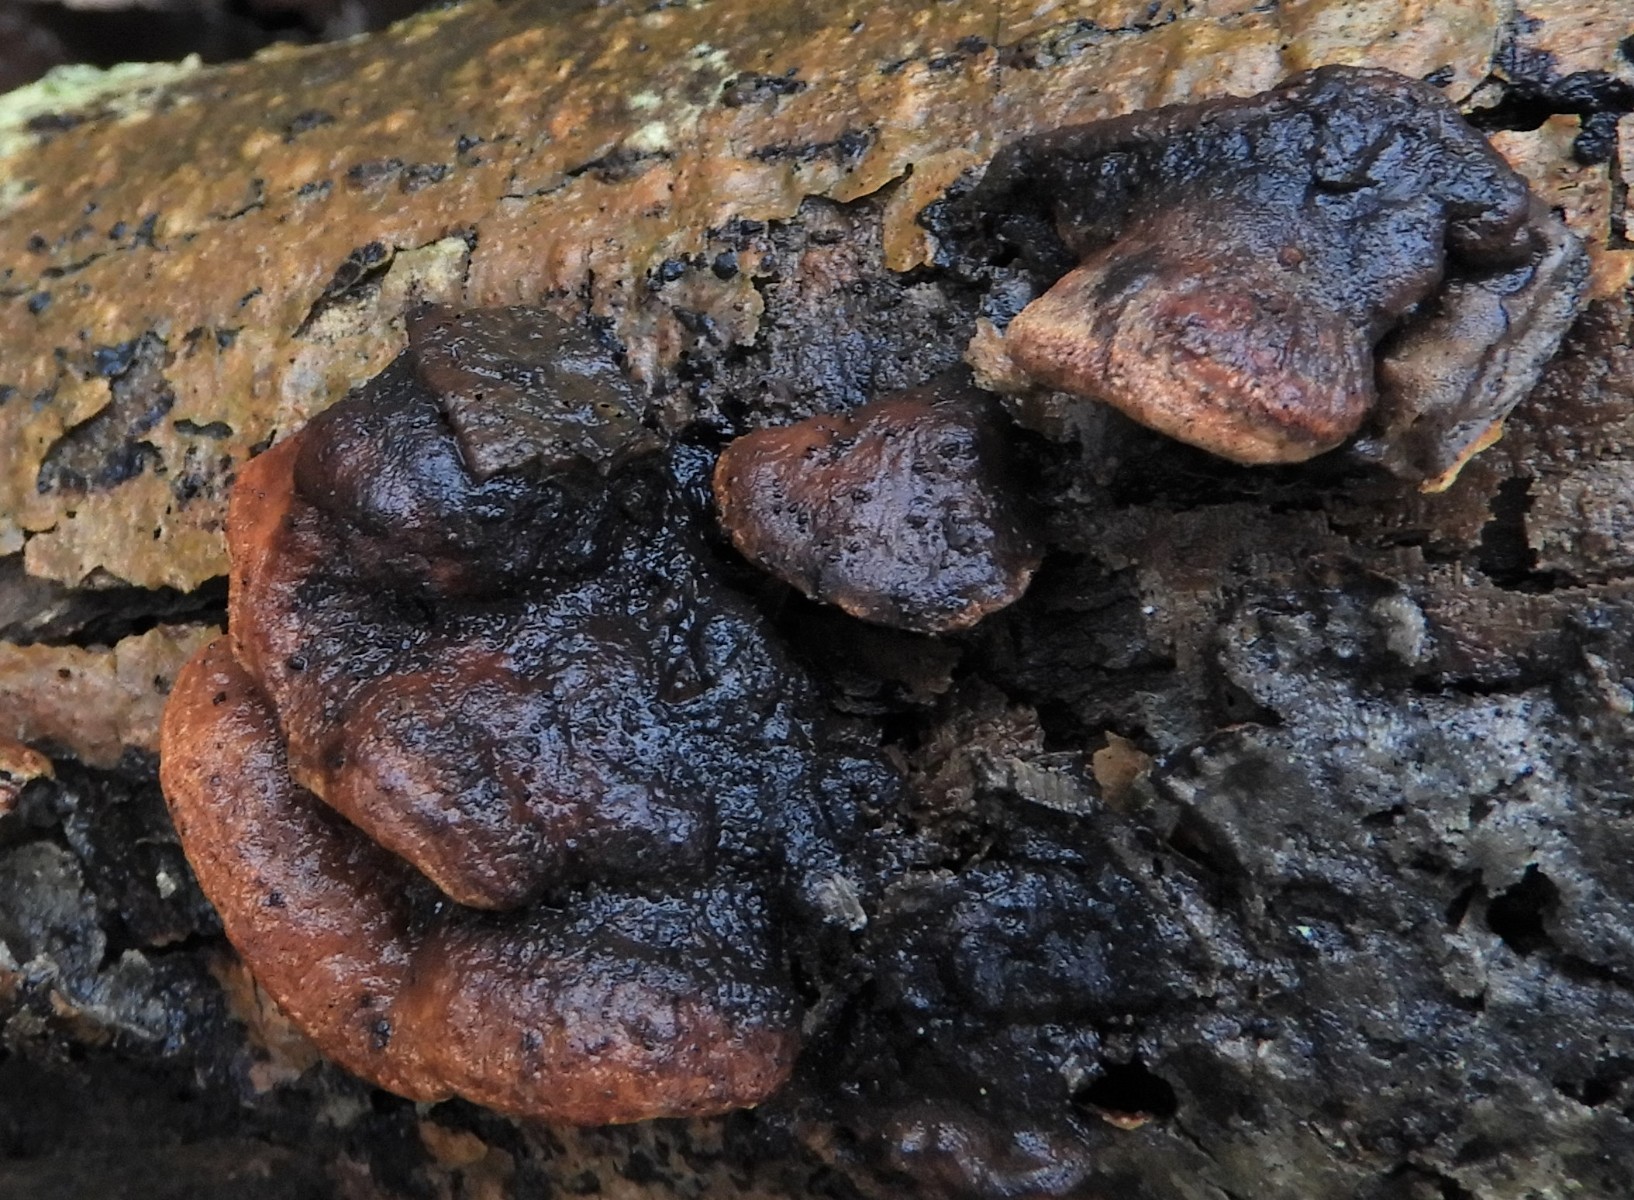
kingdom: Fungi
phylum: Basidiomycota
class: Agaricomycetes
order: Polyporales
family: Incrustoporiaceae
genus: Skeletocutis
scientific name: Skeletocutis nemoralis
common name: stor krystalporesvamp
